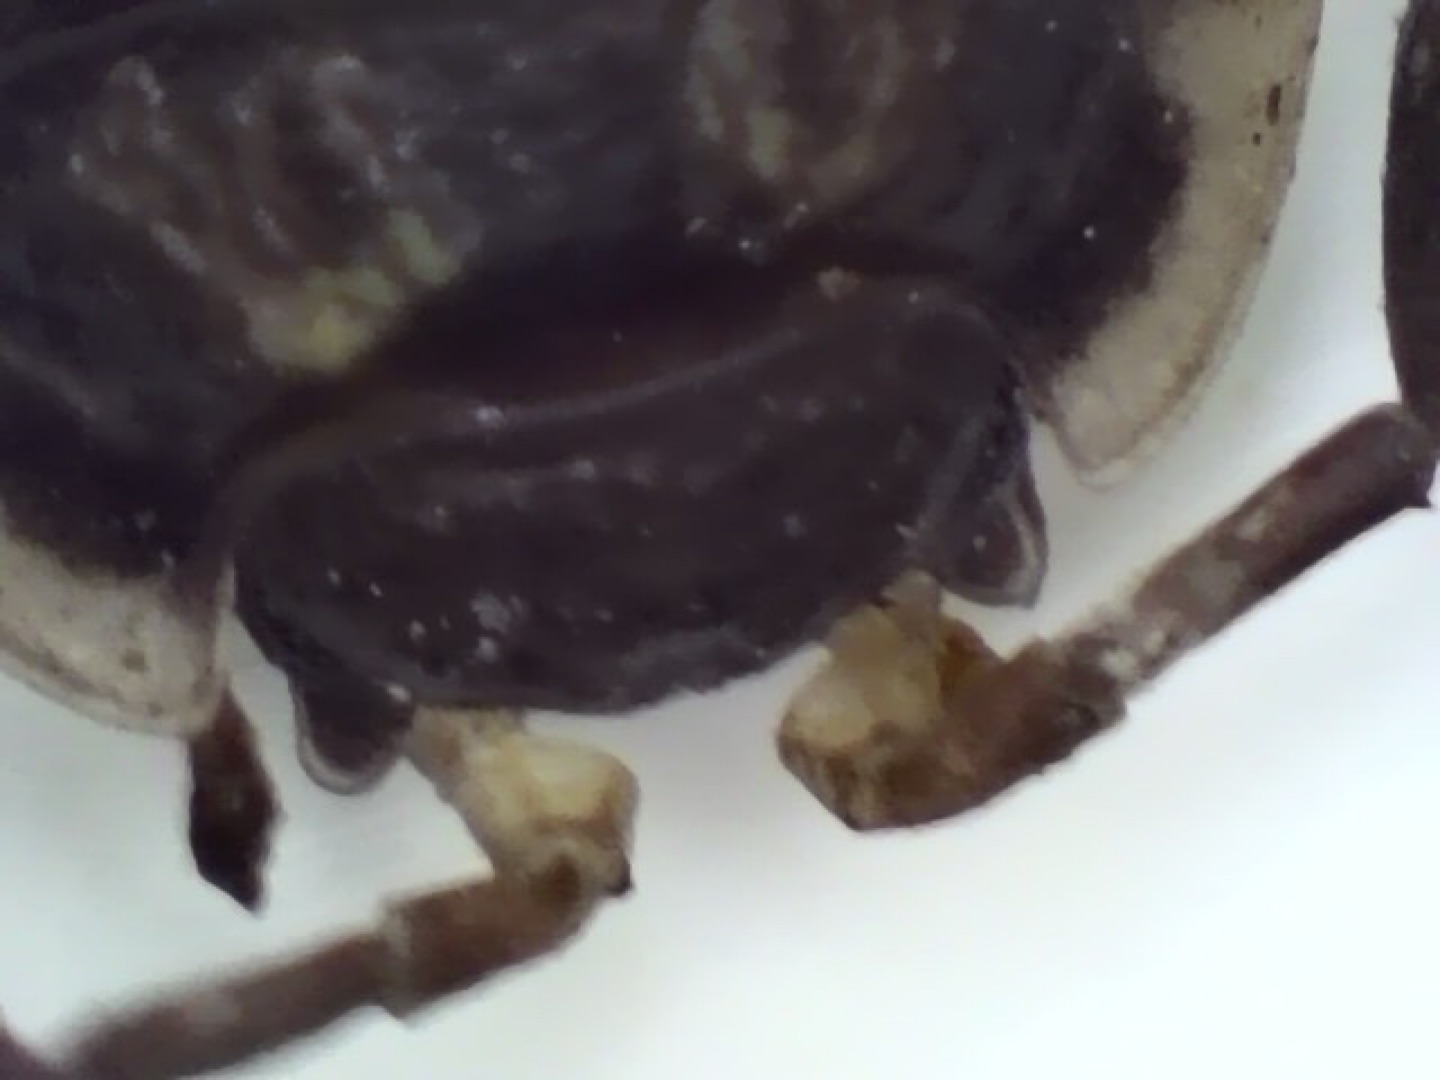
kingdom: Animalia
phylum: Arthropoda
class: Malacostraca
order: Isopoda
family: Oniscidae
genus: Oniscus
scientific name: Oniscus asellus
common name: Glat bænkebider
